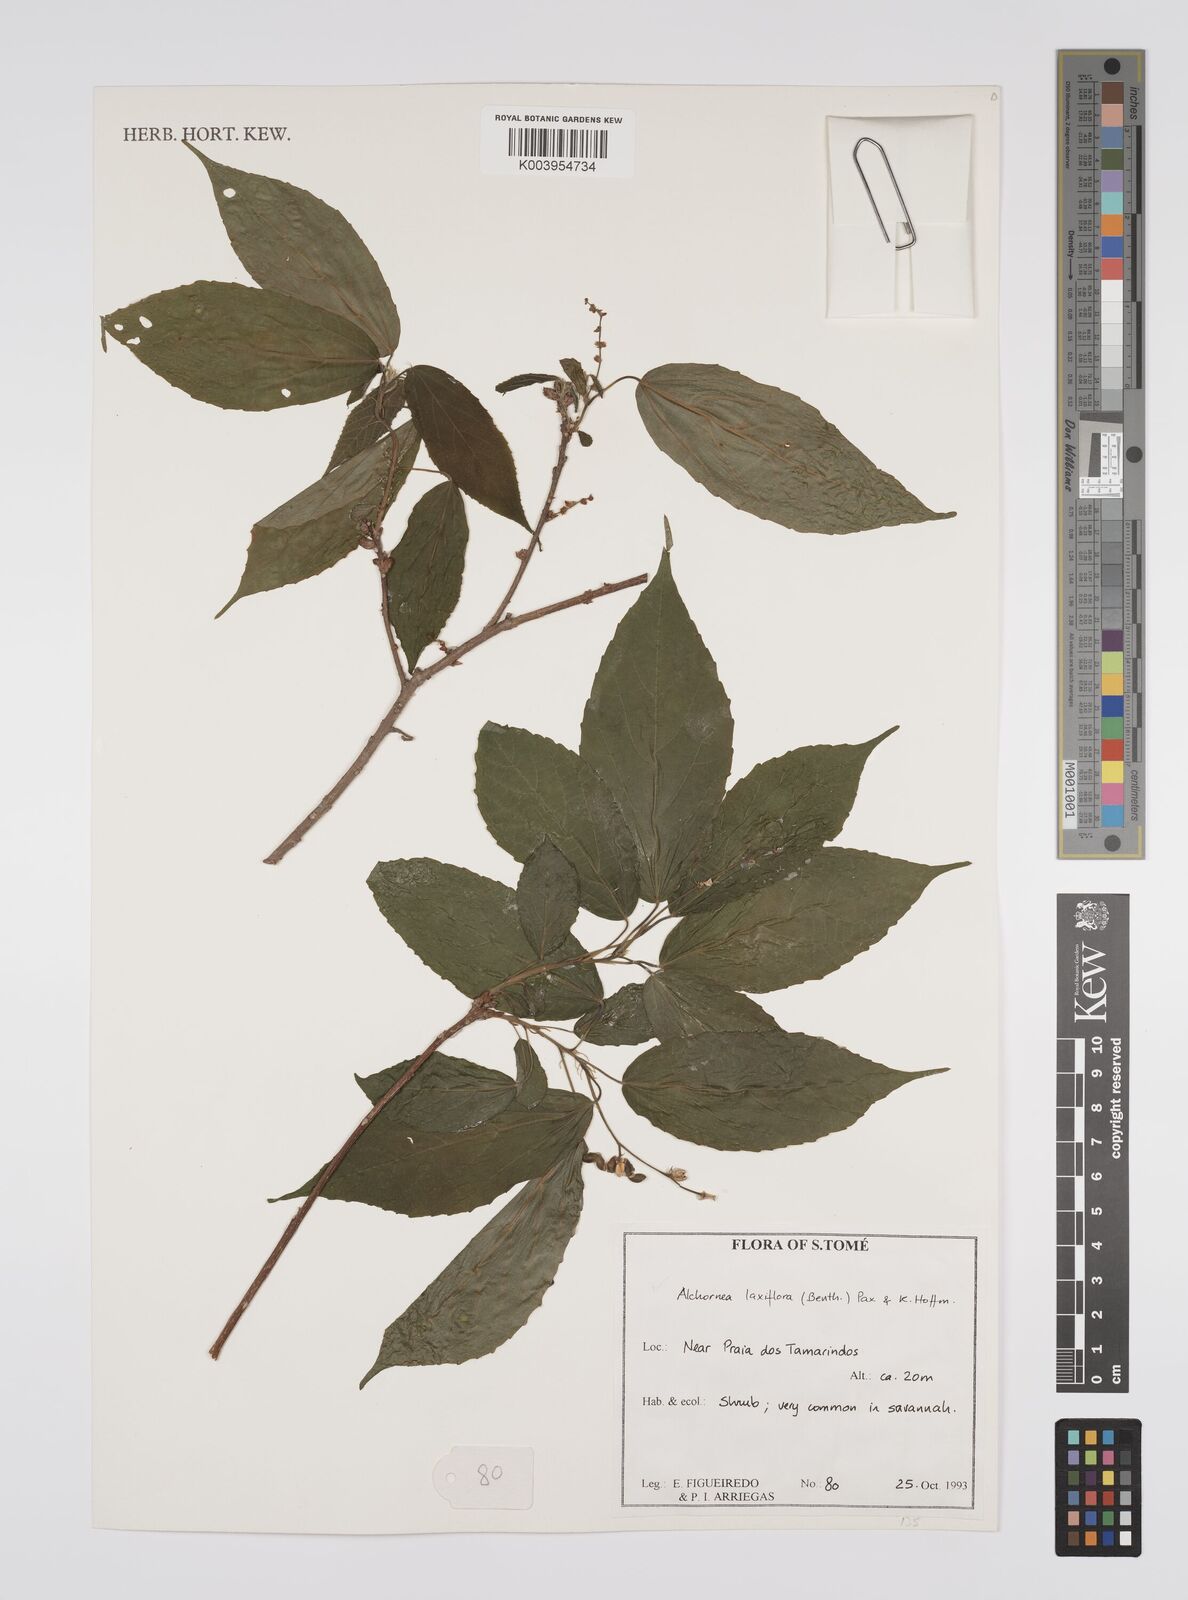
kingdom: Plantae
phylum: Tracheophyta
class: Magnoliopsida
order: Malpighiales
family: Euphorbiaceae
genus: Alchornea
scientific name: Alchornea laxiflora
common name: Lowveld bead-string
